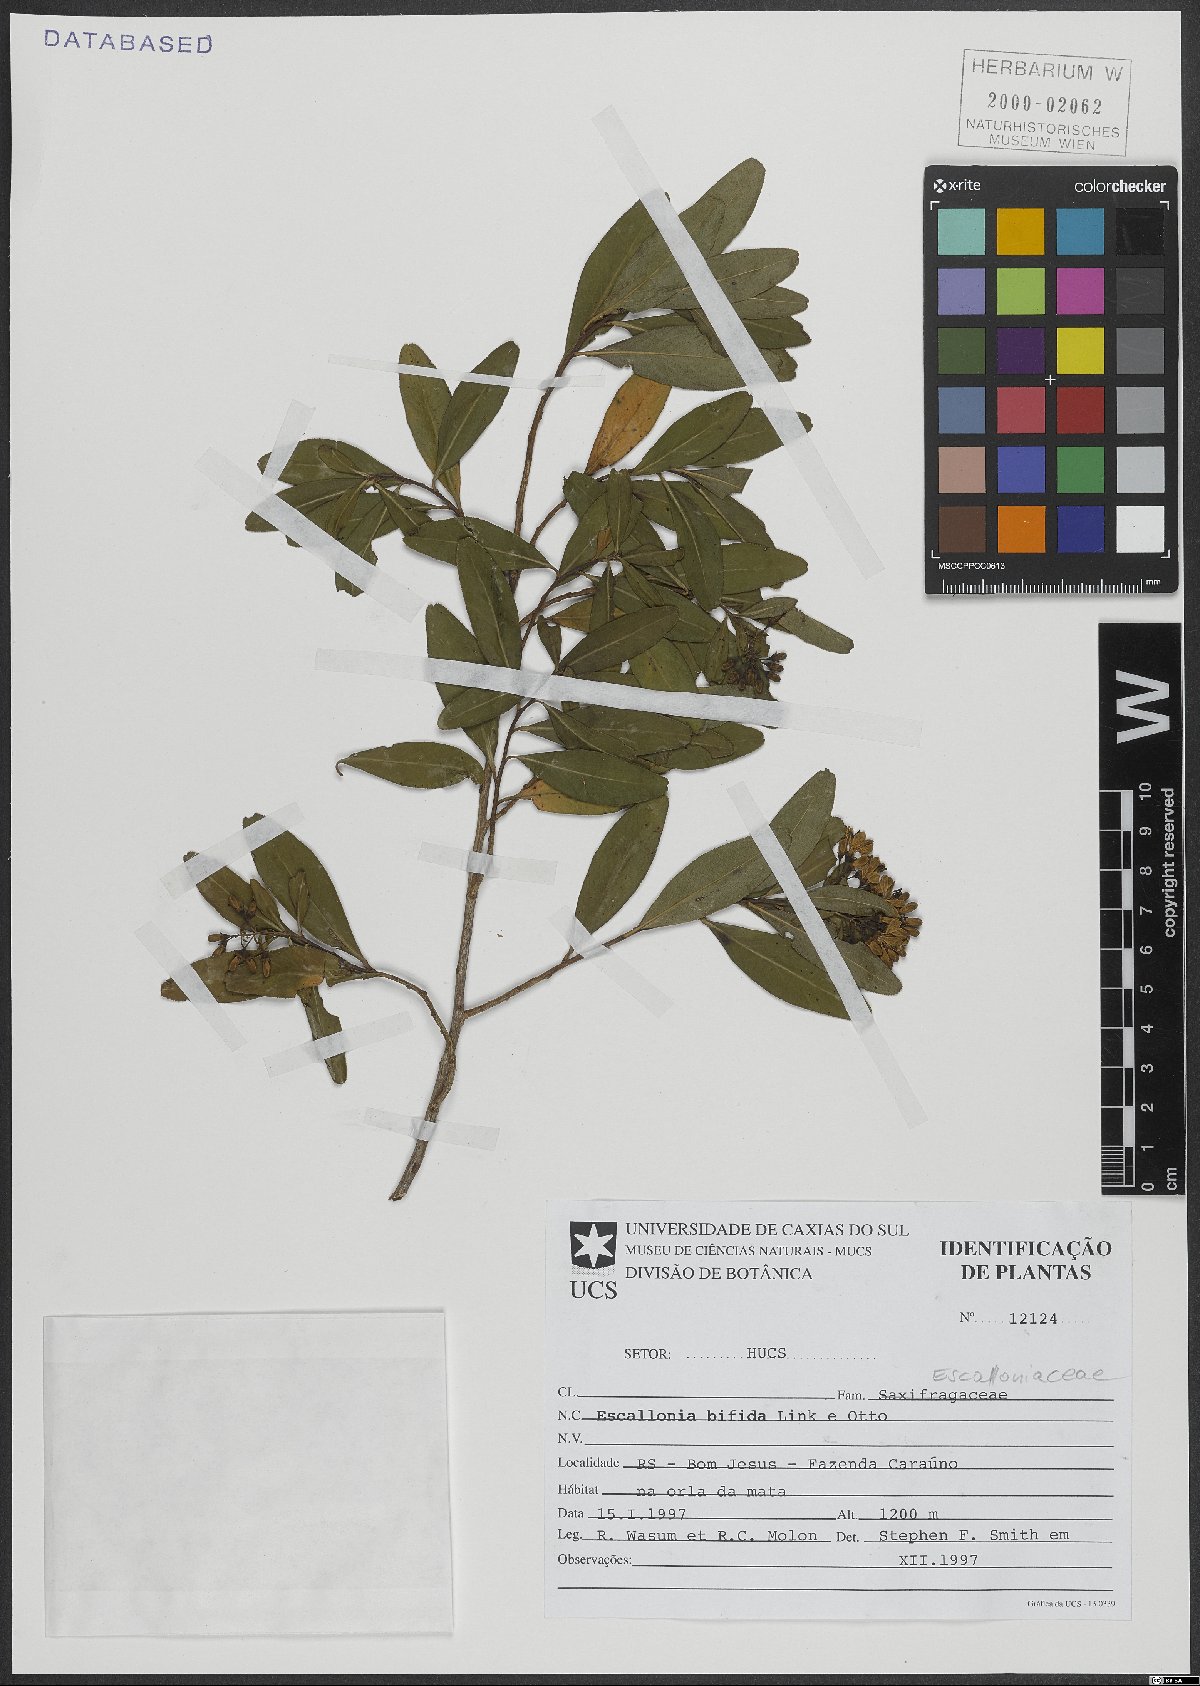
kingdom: Plantae
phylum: Tracheophyta
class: Magnoliopsida
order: Escalloniales
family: Escalloniaceae
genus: Escallonia
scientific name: Escallonia bifida
